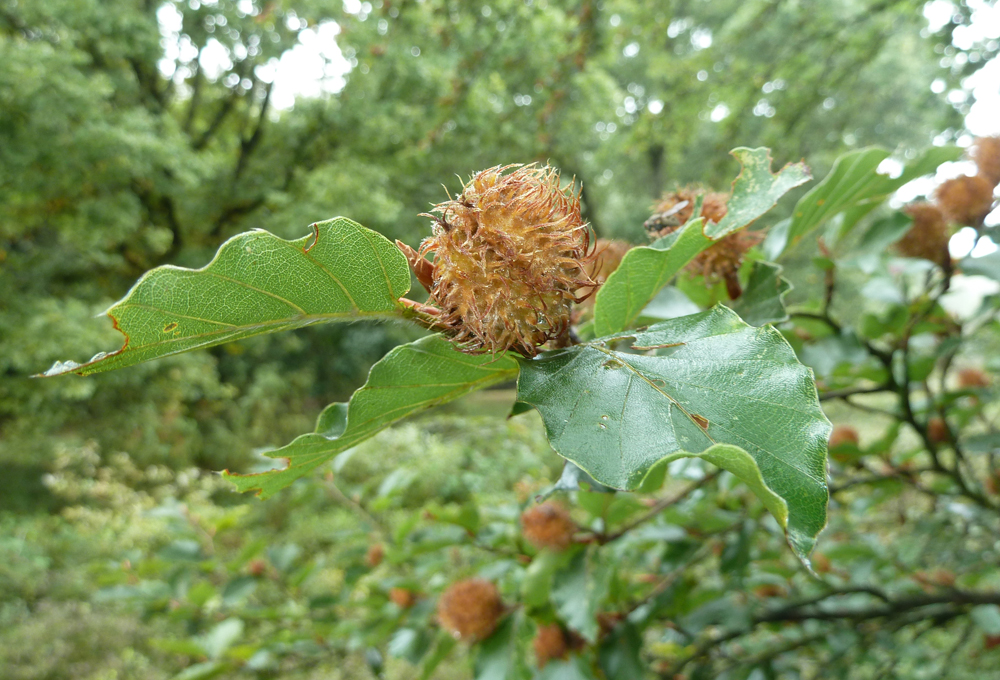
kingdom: Plantae
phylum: Tracheophyta
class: Magnoliopsida
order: Fagales
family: Fagaceae
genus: Fagus
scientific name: Fagus sylvatica
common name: Beech
